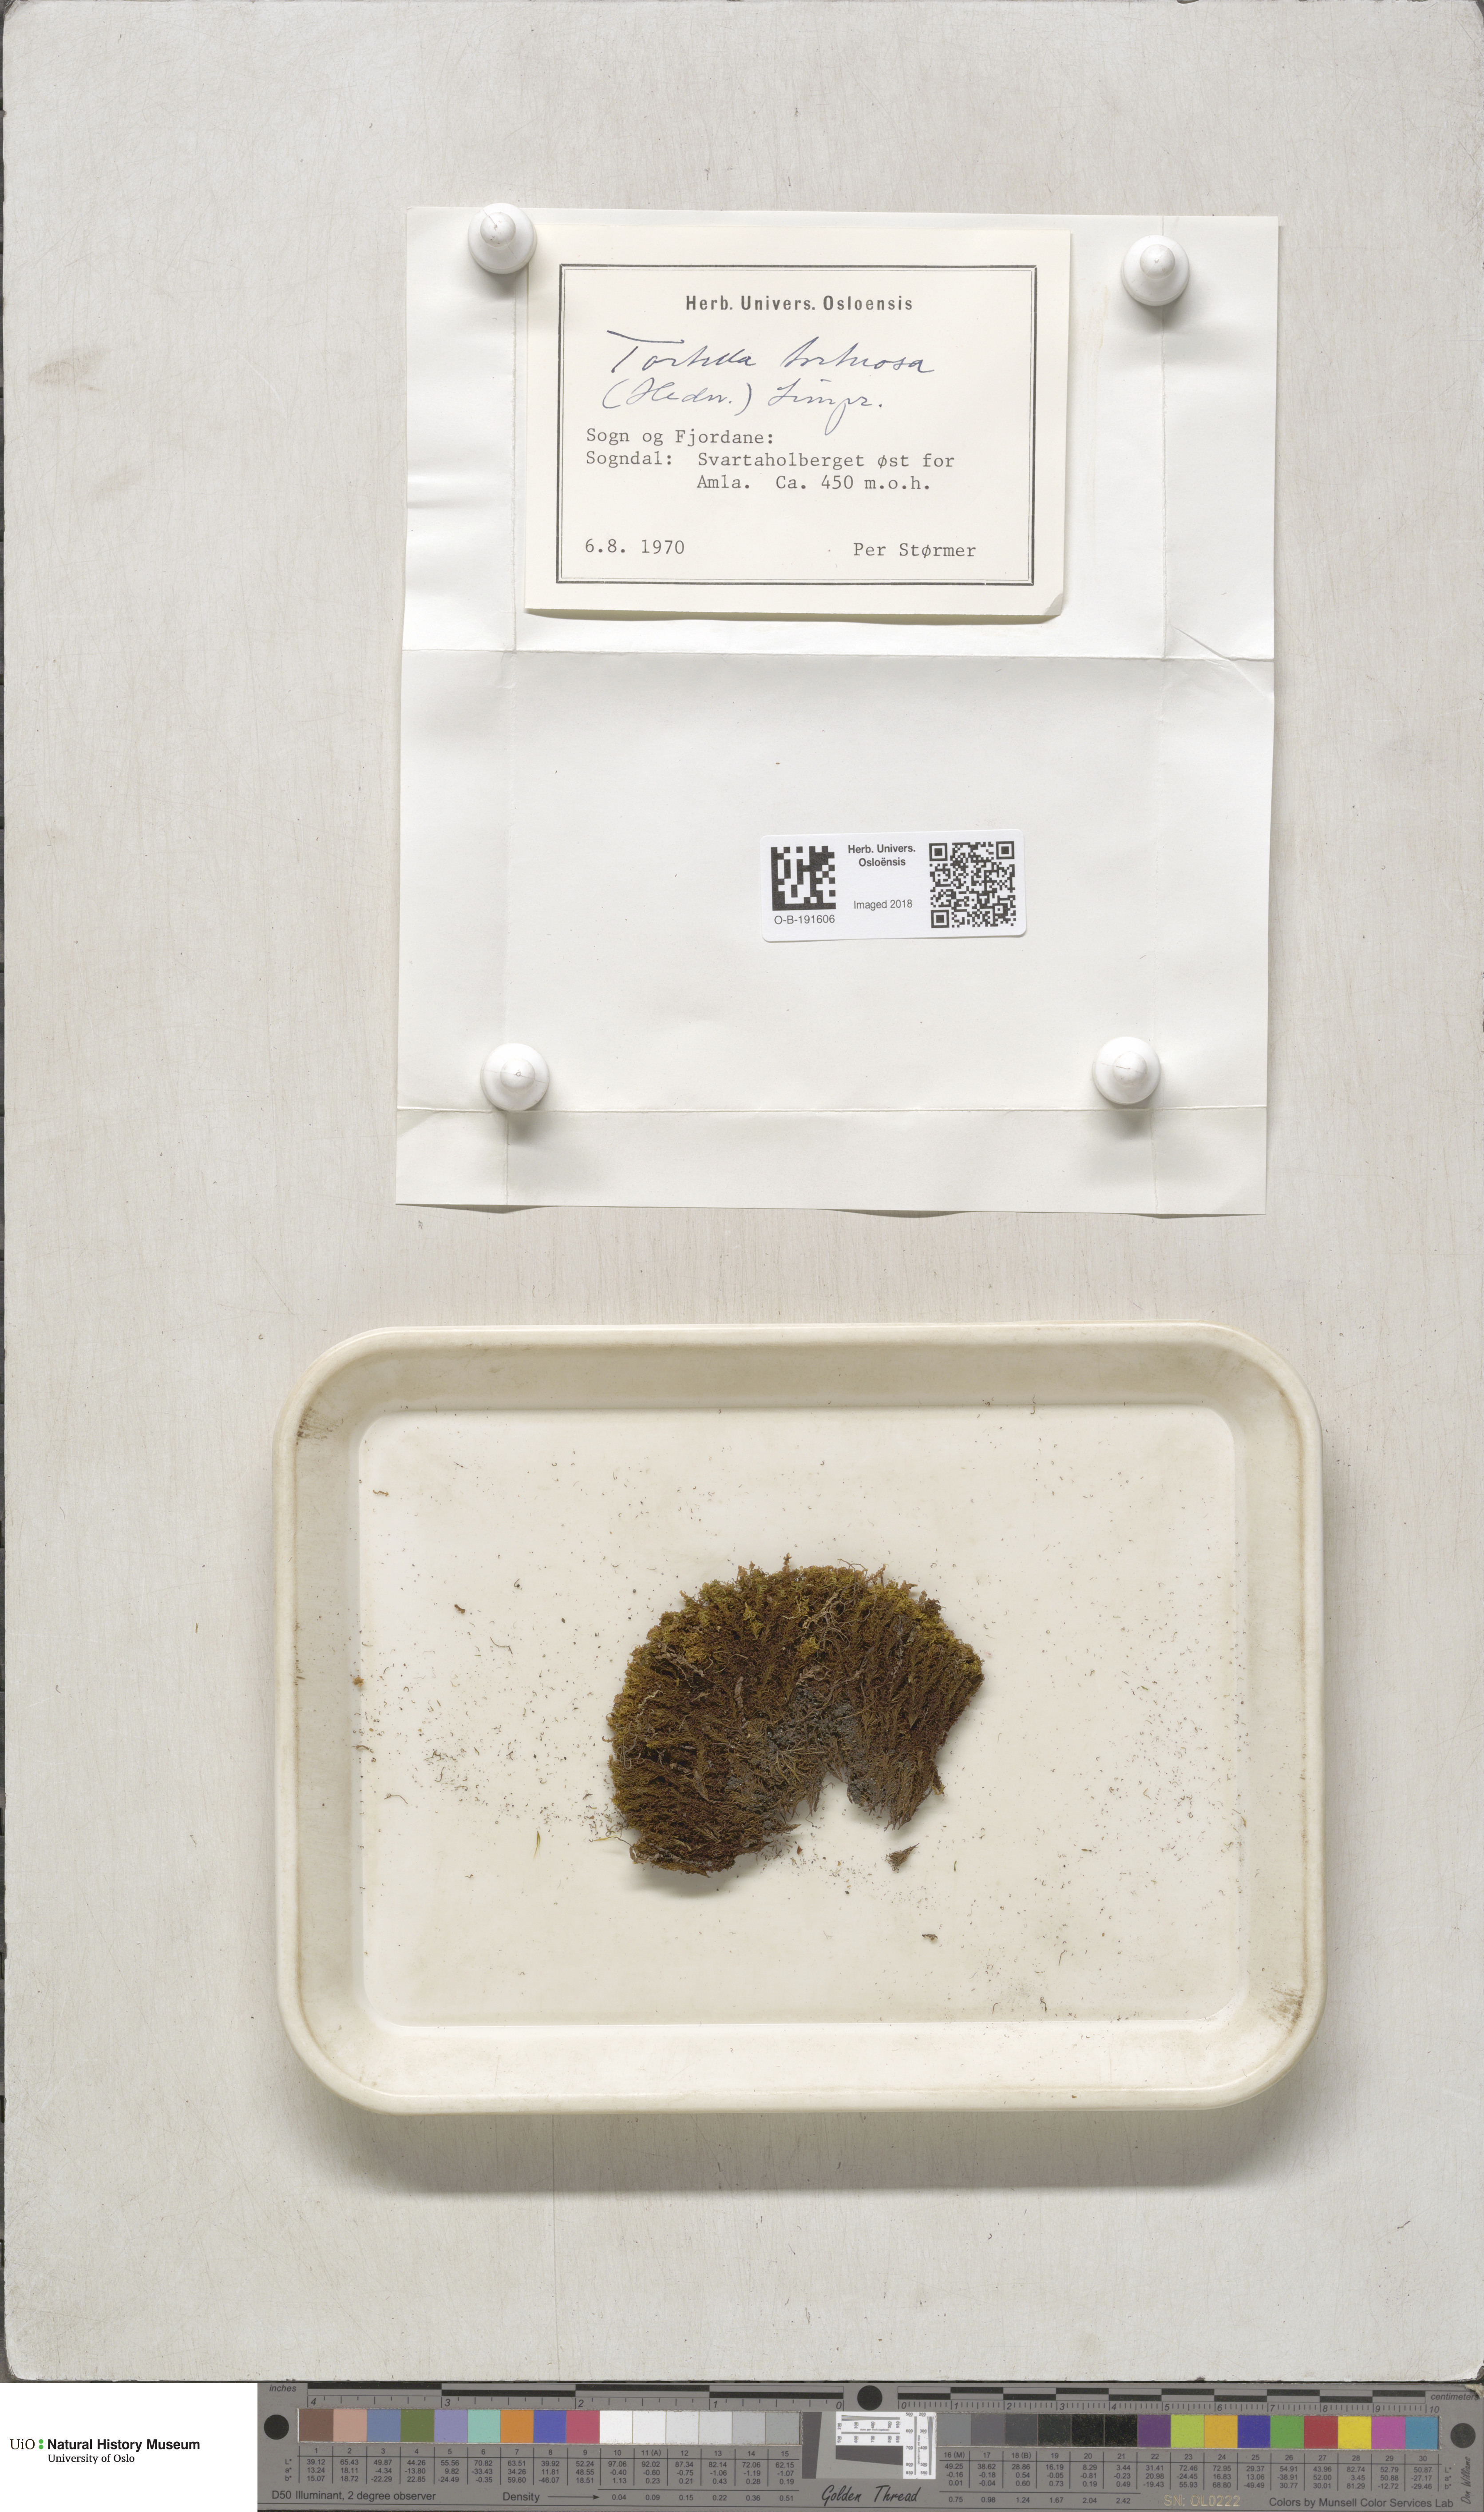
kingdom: Plantae
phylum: Bryophyta
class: Bryopsida
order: Pottiales
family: Pottiaceae
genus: Tortella
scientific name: Tortella tortuosa
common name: Frizzled crisp moss
